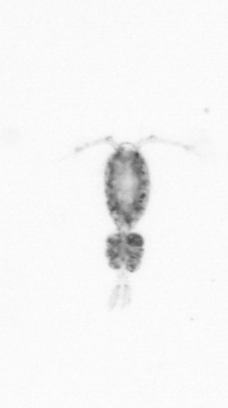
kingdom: Animalia
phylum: Arthropoda
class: Copepoda
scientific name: Copepoda
